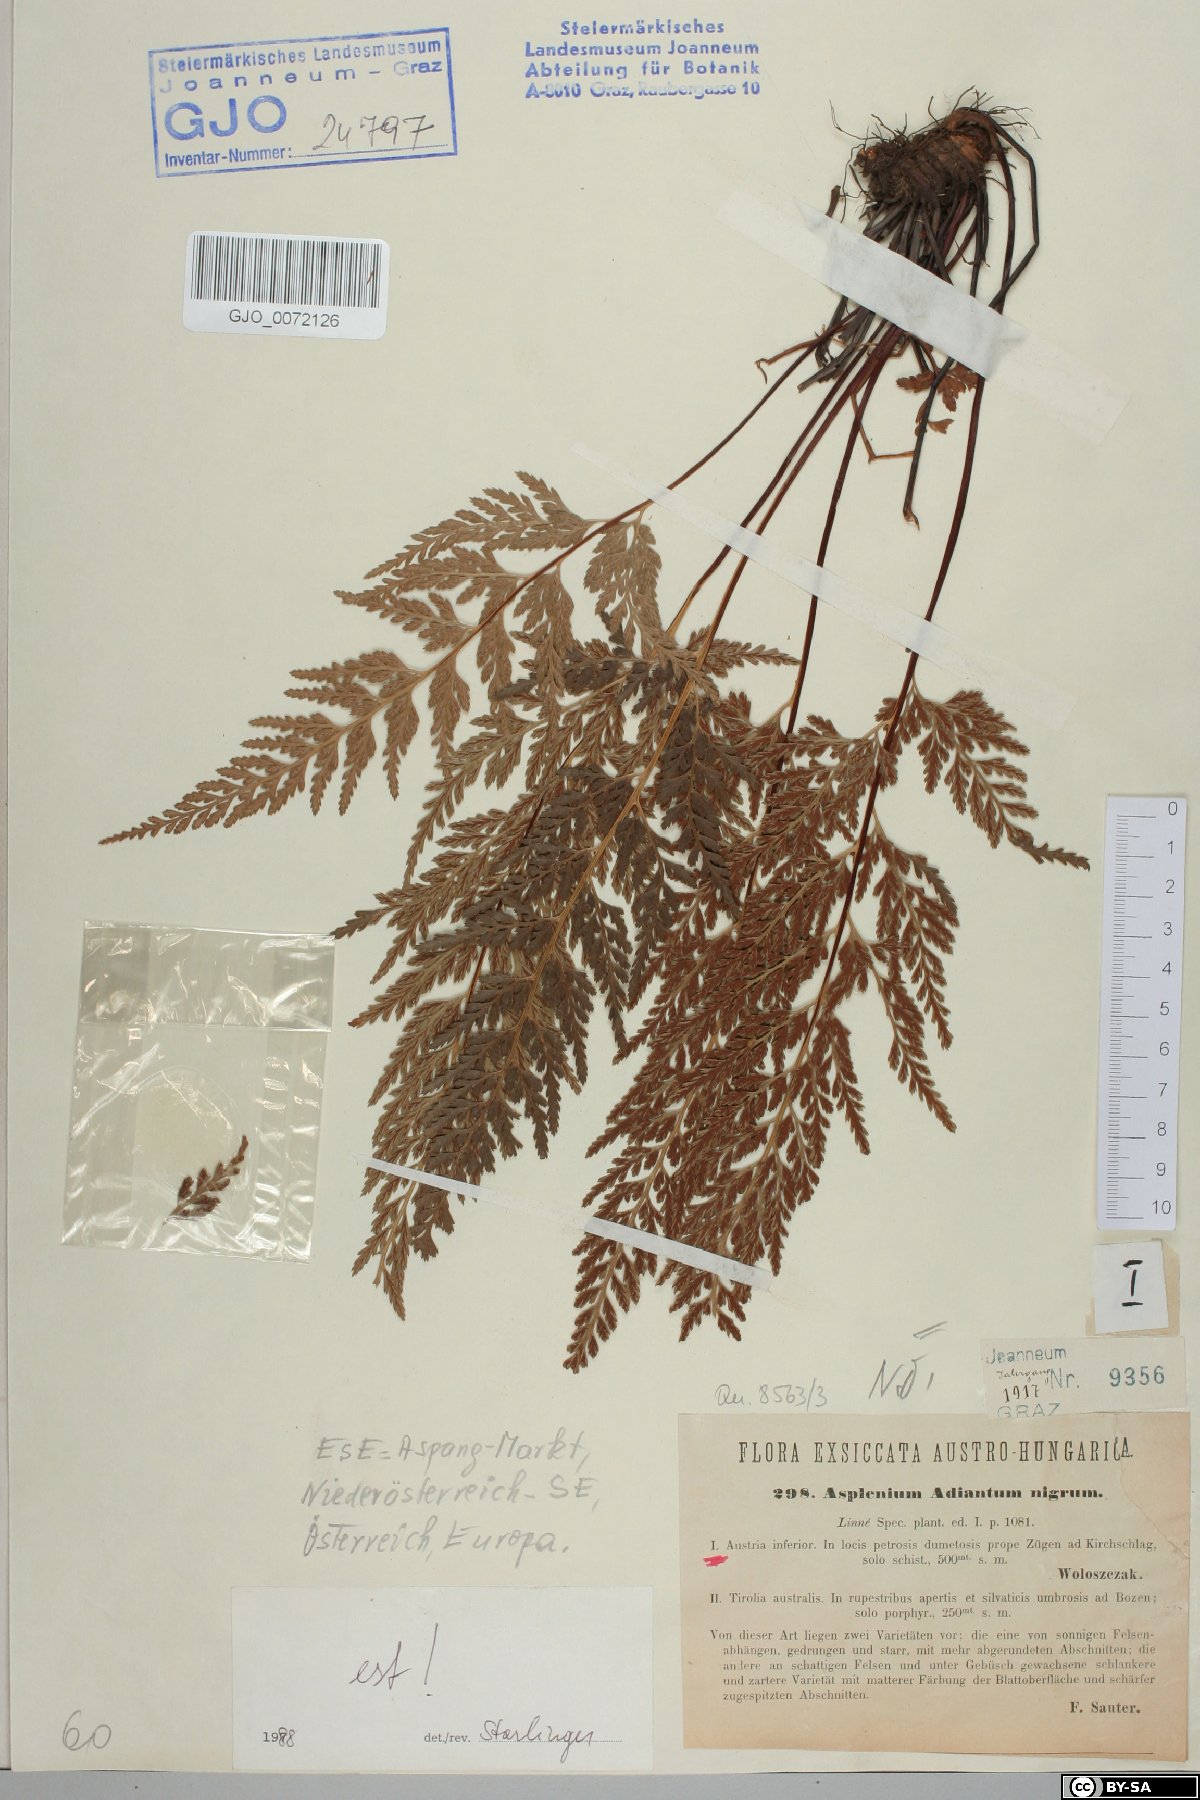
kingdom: Plantae
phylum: Tracheophyta
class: Polypodiopsida
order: Polypodiales
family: Aspleniaceae
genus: Asplenium
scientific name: Asplenium adiantum-nigrum
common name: Black spleenwort
